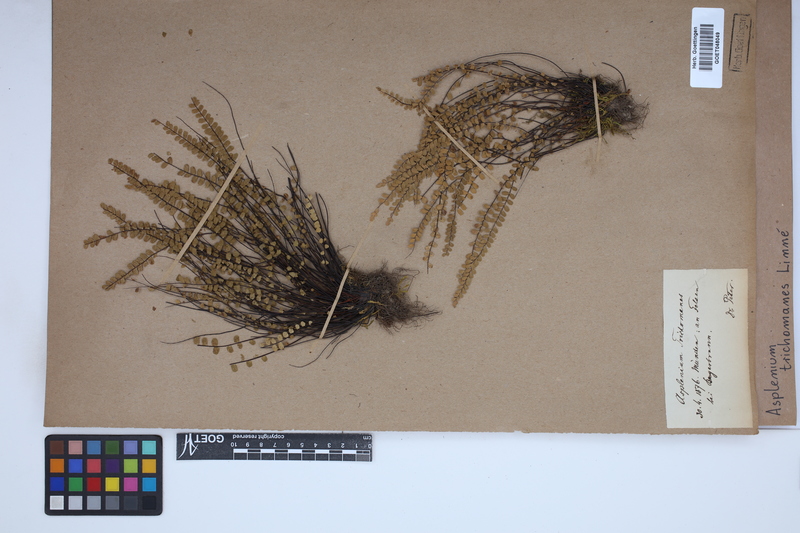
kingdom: Plantae
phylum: Tracheophyta
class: Polypodiopsida
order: Polypodiales
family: Aspleniaceae
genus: Asplenium
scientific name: Asplenium trichomanes
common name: Maidenhair spleenwort
